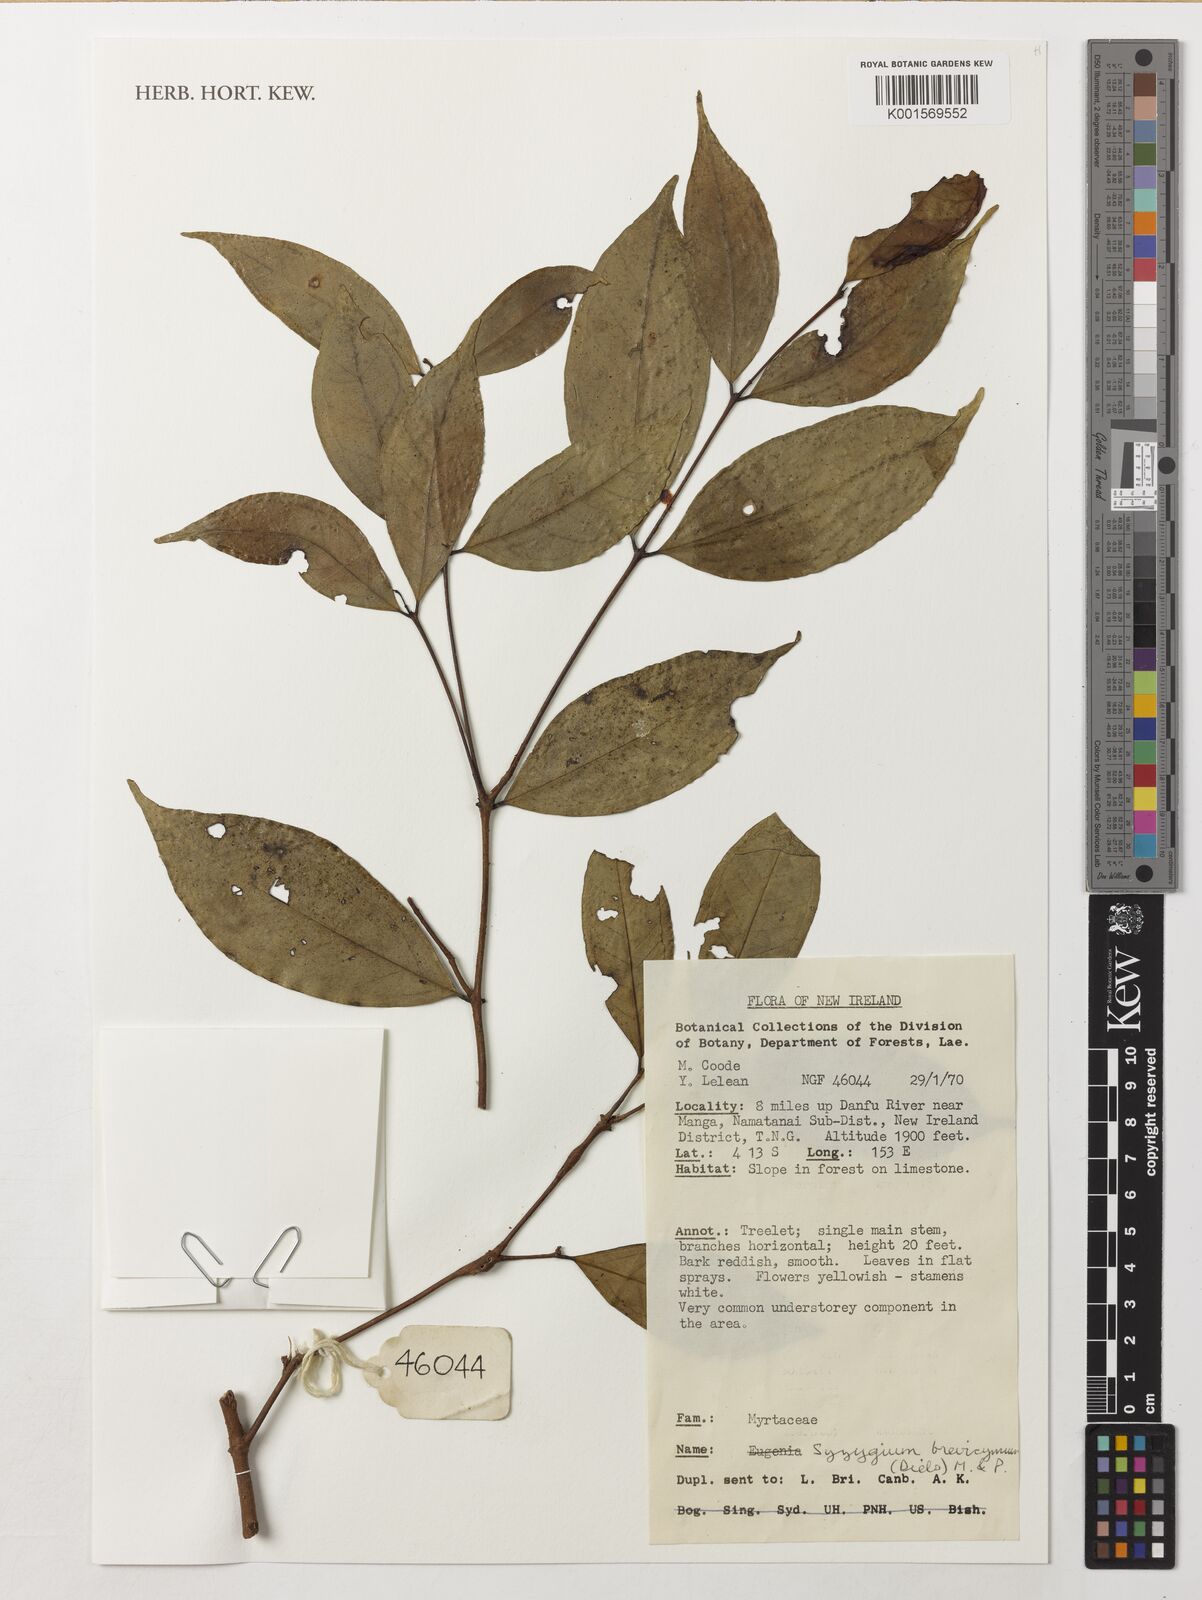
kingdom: Plantae
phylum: Tracheophyta
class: Magnoliopsida
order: Myrtales
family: Myrtaceae
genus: Syzygium
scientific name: Syzygium brevicymum
